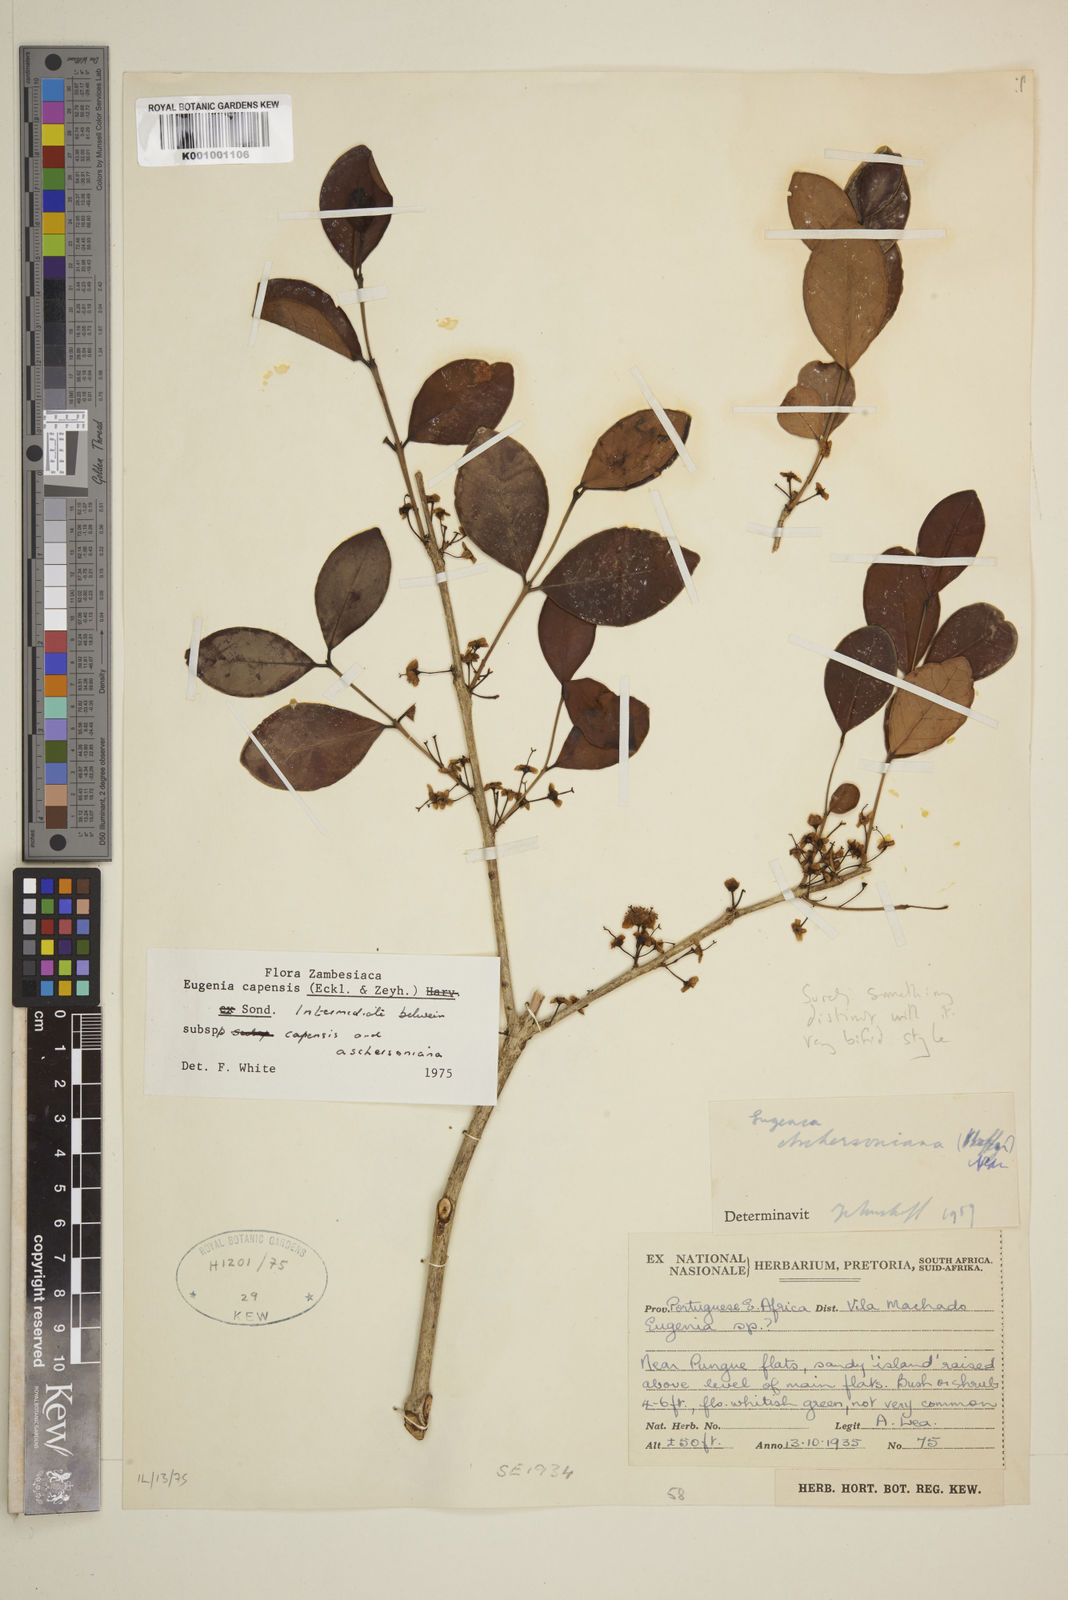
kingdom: Plantae
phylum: Tracheophyta
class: Magnoliopsida
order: Myrtales
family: Myrtaceae
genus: Eugenia
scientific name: Eugenia aschersoniana
